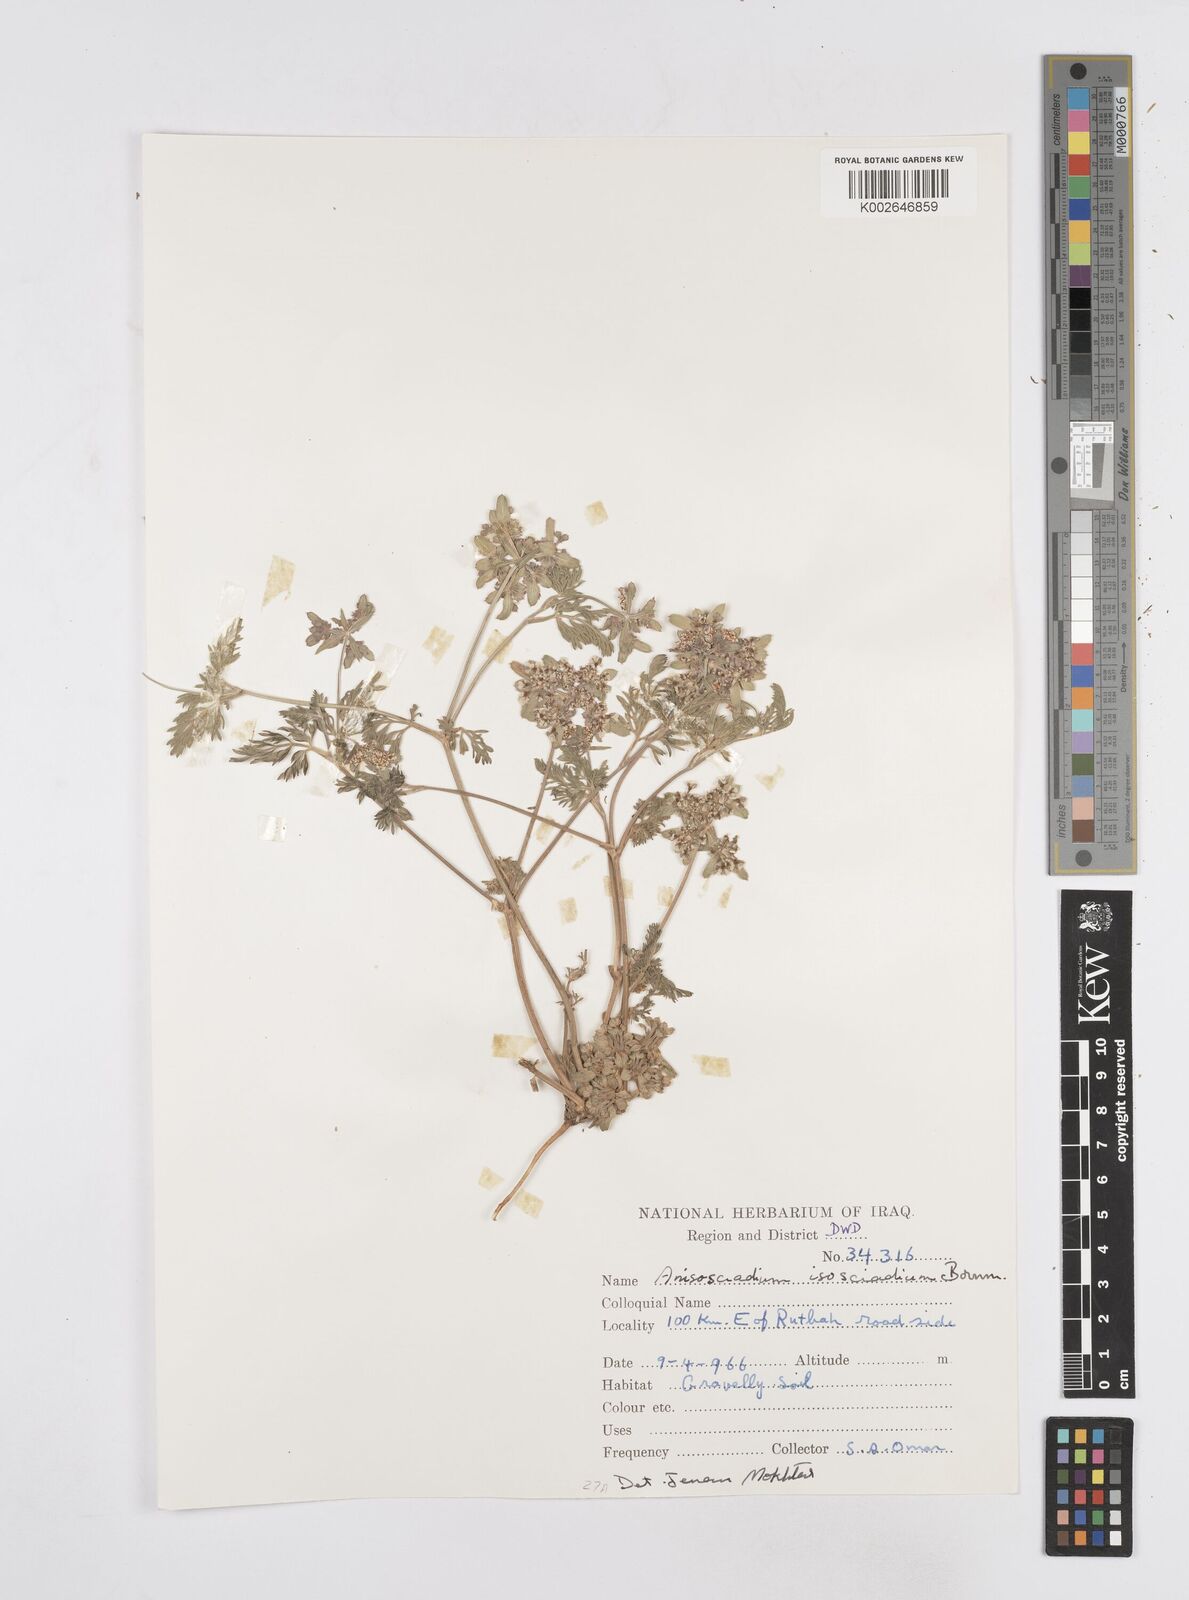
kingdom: Plantae
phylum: Tracheophyta
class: Magnoliopsida
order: Apiales
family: Apiaceae
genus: Anisosciadium
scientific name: Anisosciadium isosciadium
